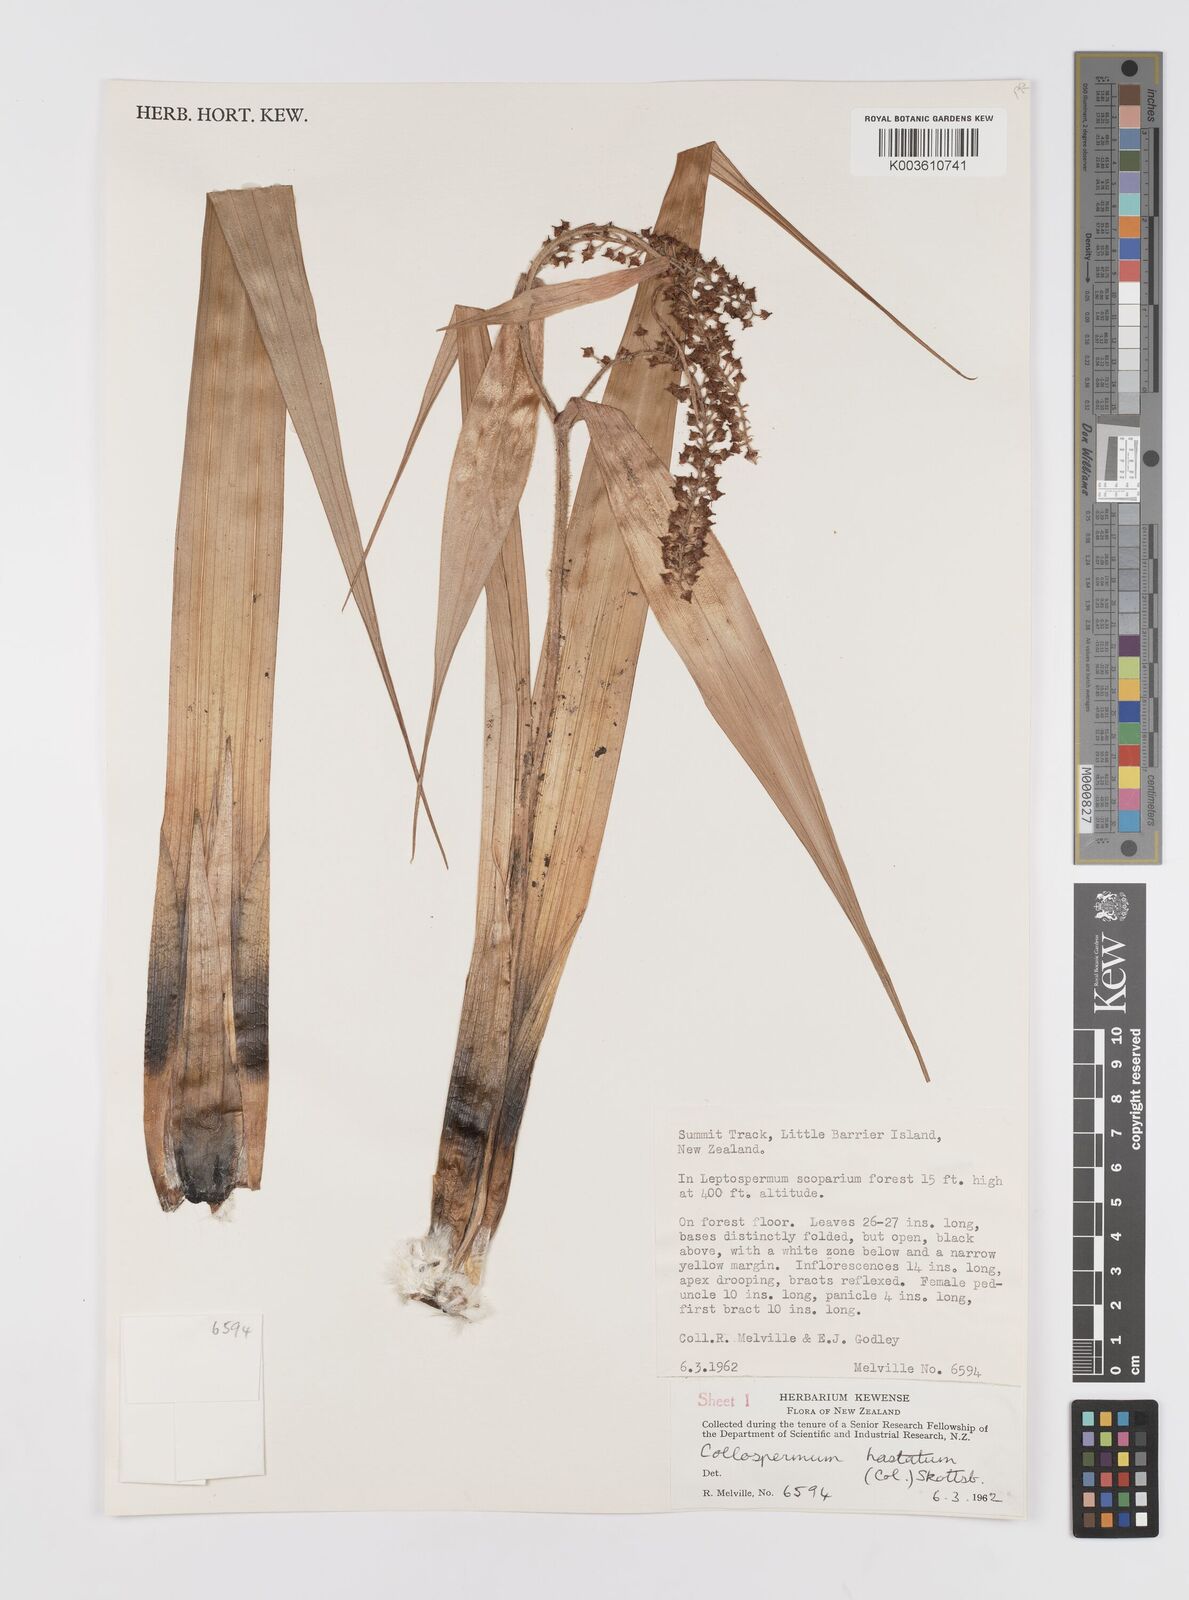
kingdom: Plantae
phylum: Tracheophyta
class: Liliopsida
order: Asparagales
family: Asteliaceae
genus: Astelia
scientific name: Astelia hastata
